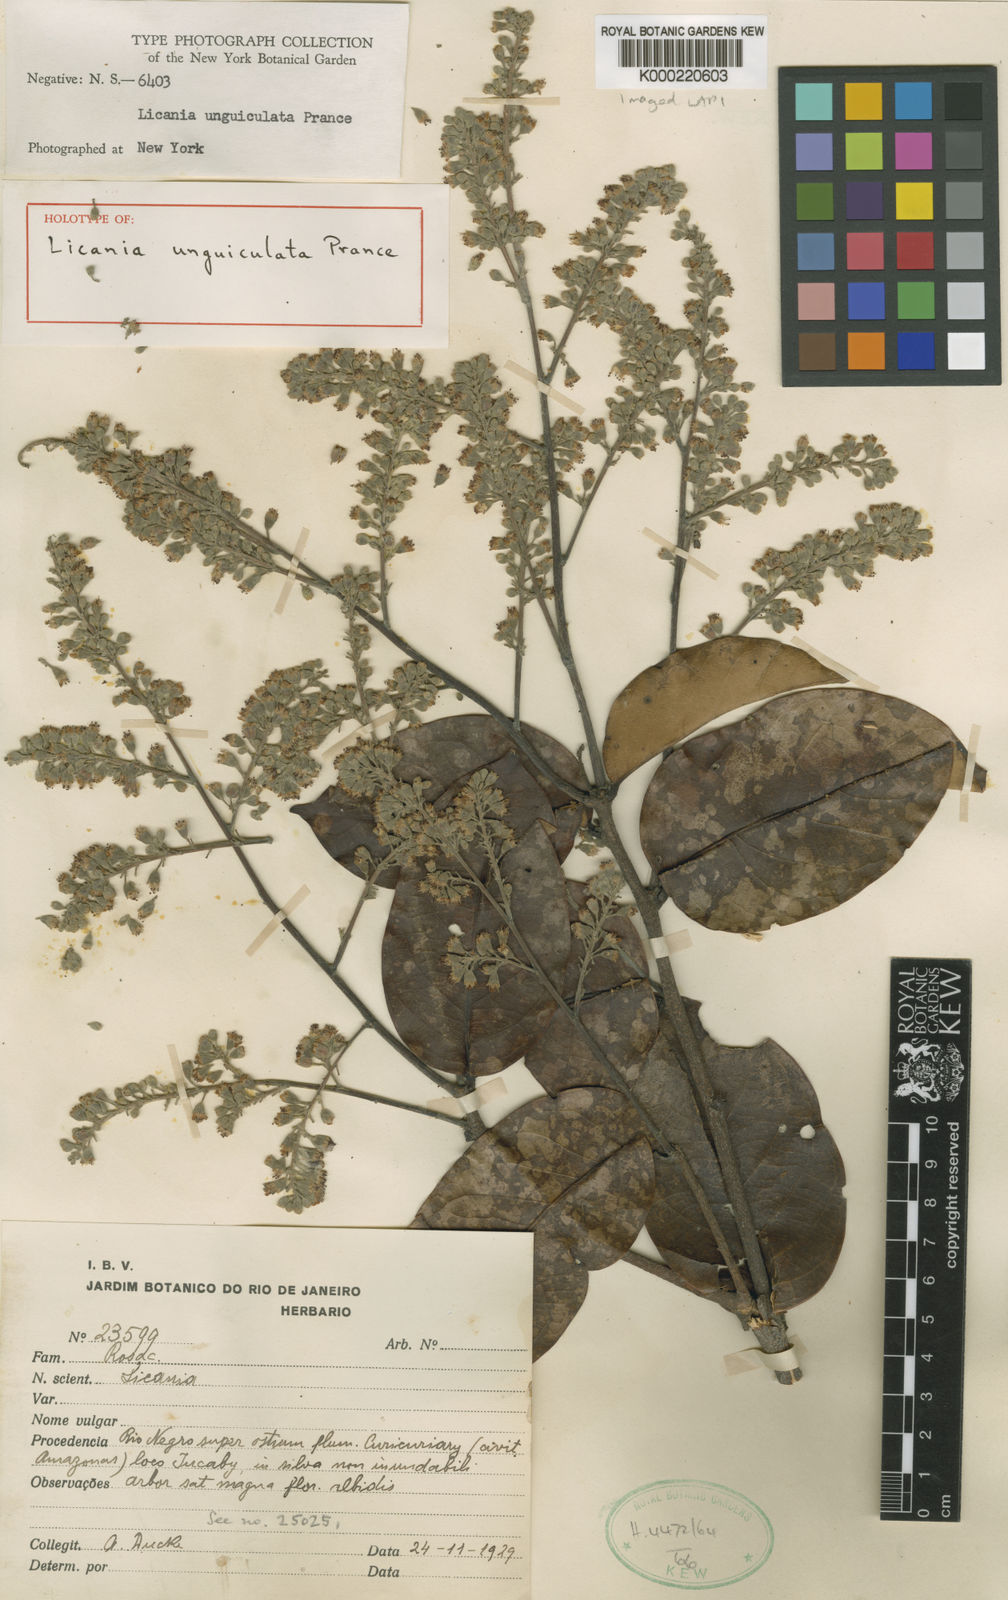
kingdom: Plantae
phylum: Tracheophyta
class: Magnoliopsida
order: Malpighiales
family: Chrysobalanaceae
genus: Moquilea
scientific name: Moquilea unguiculata
